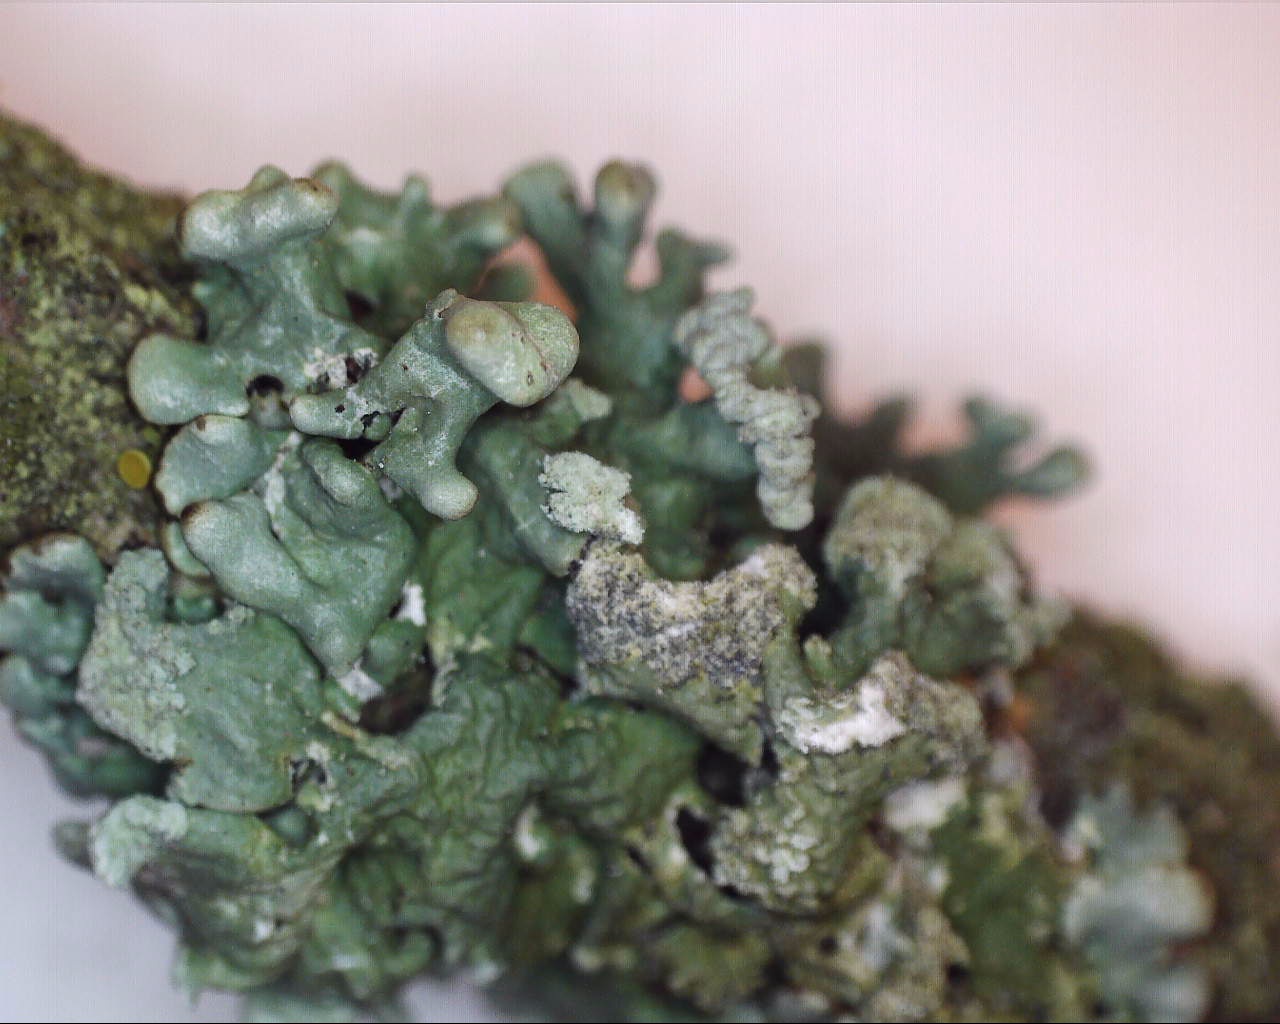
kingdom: Fungi
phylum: Ascomycota
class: Lecanoromycetes
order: Lecanorales
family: Parmeliaceae
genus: Hypogymnia
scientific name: Hypogymnia tubulosa
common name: finger-kvistlav
